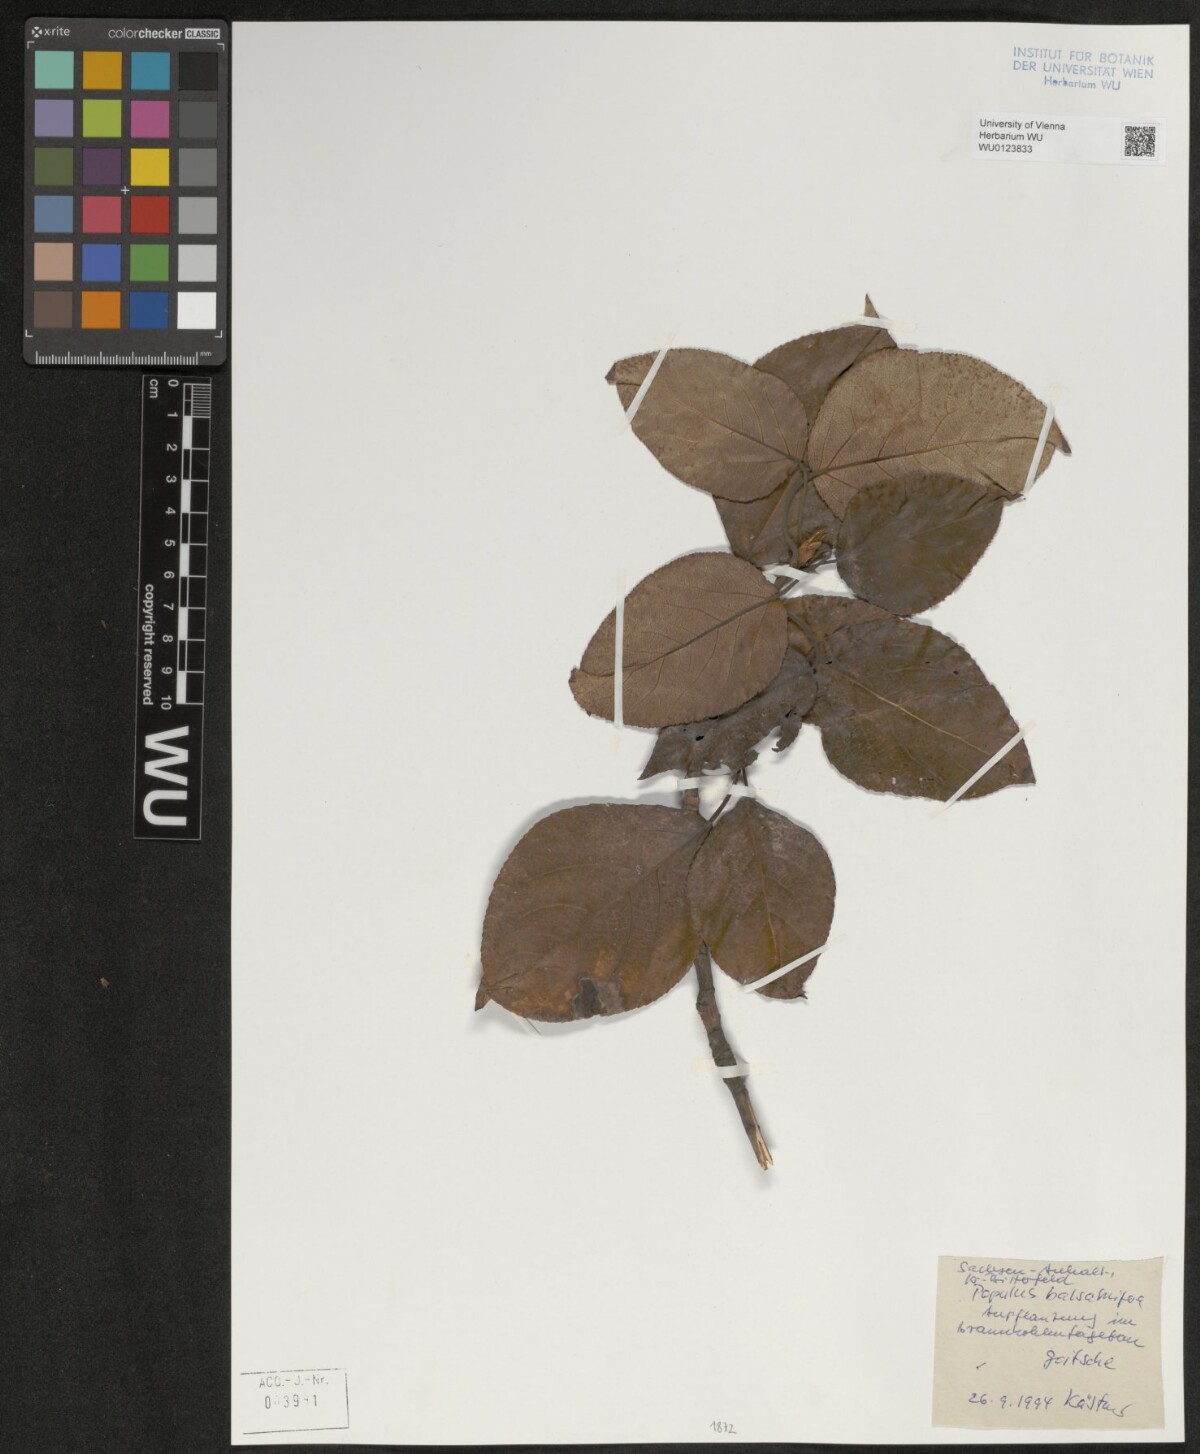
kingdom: Plantae
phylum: Tracheophyta
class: Magnoliopsida
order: Malpighiales
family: Salicaceae
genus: Populus
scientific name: Populus balsamifera
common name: Balsam poplar
